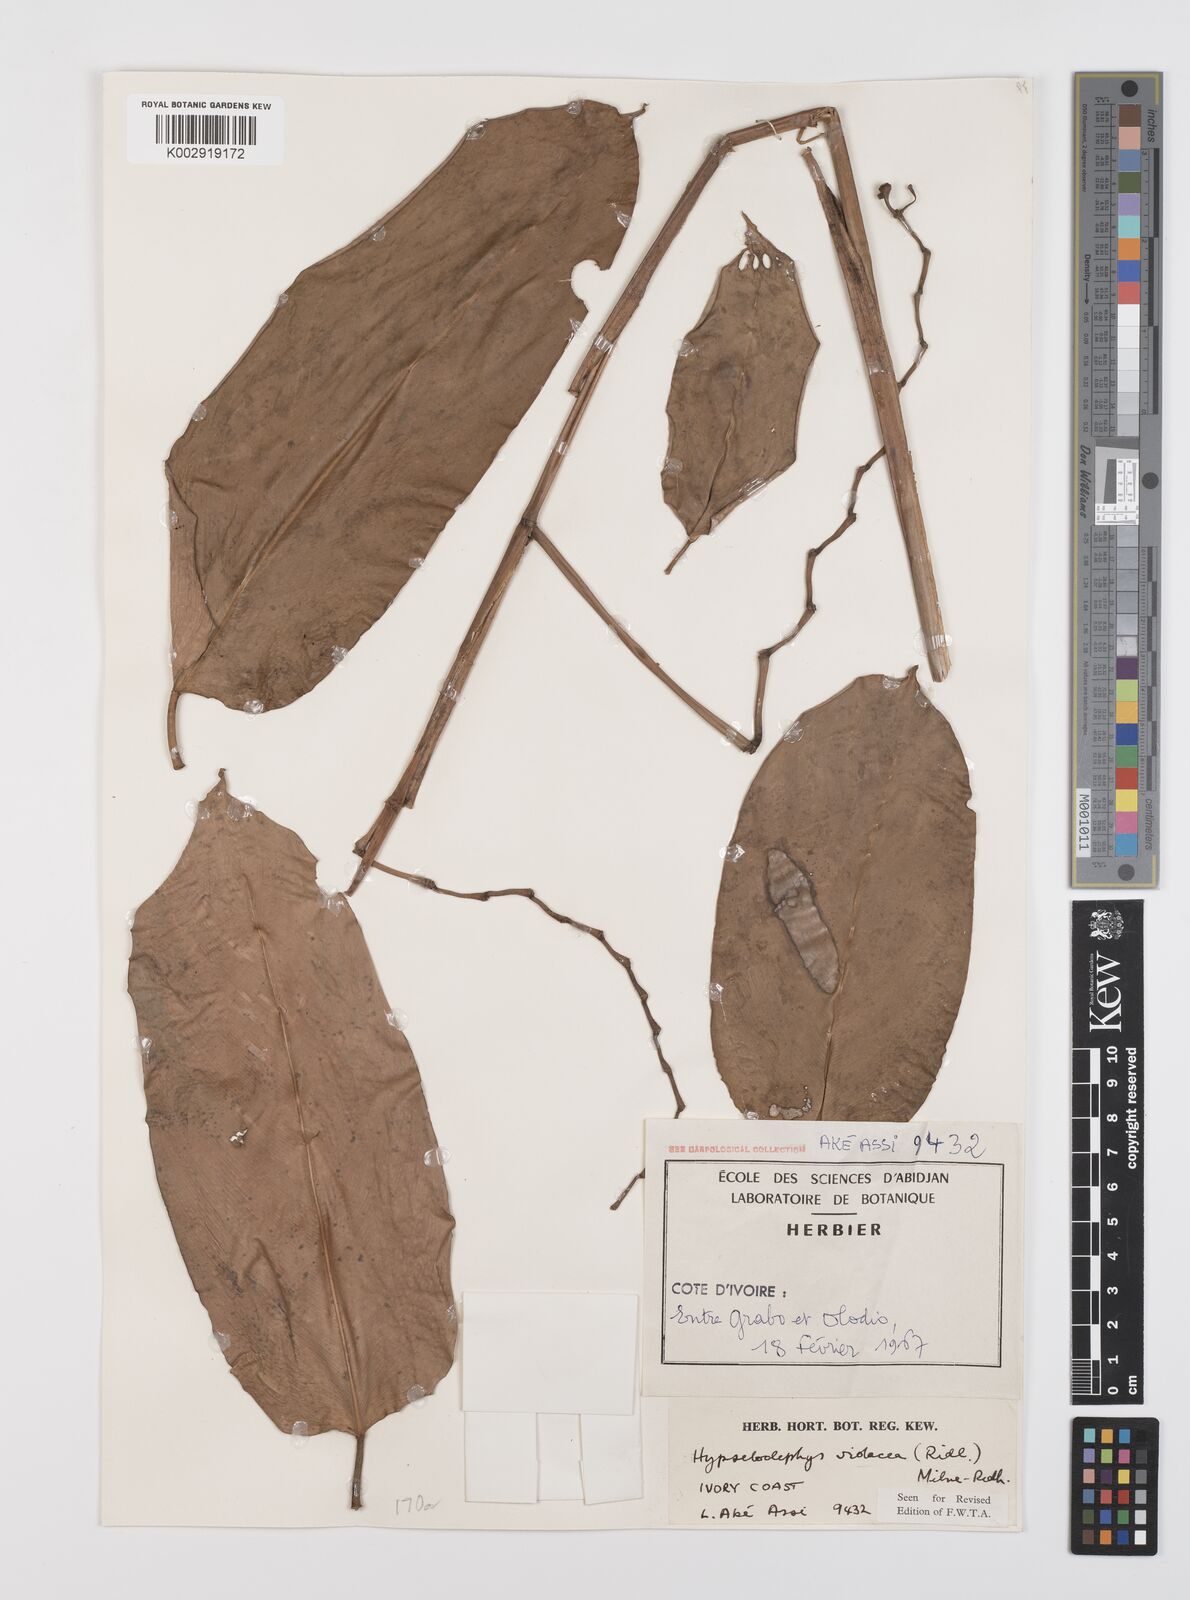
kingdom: Plantae
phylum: Tracheophyta
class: Liliopsida
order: Zingiberales
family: Marantaceae
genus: Hypselodelphys
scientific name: Hypselodelphys violacea
